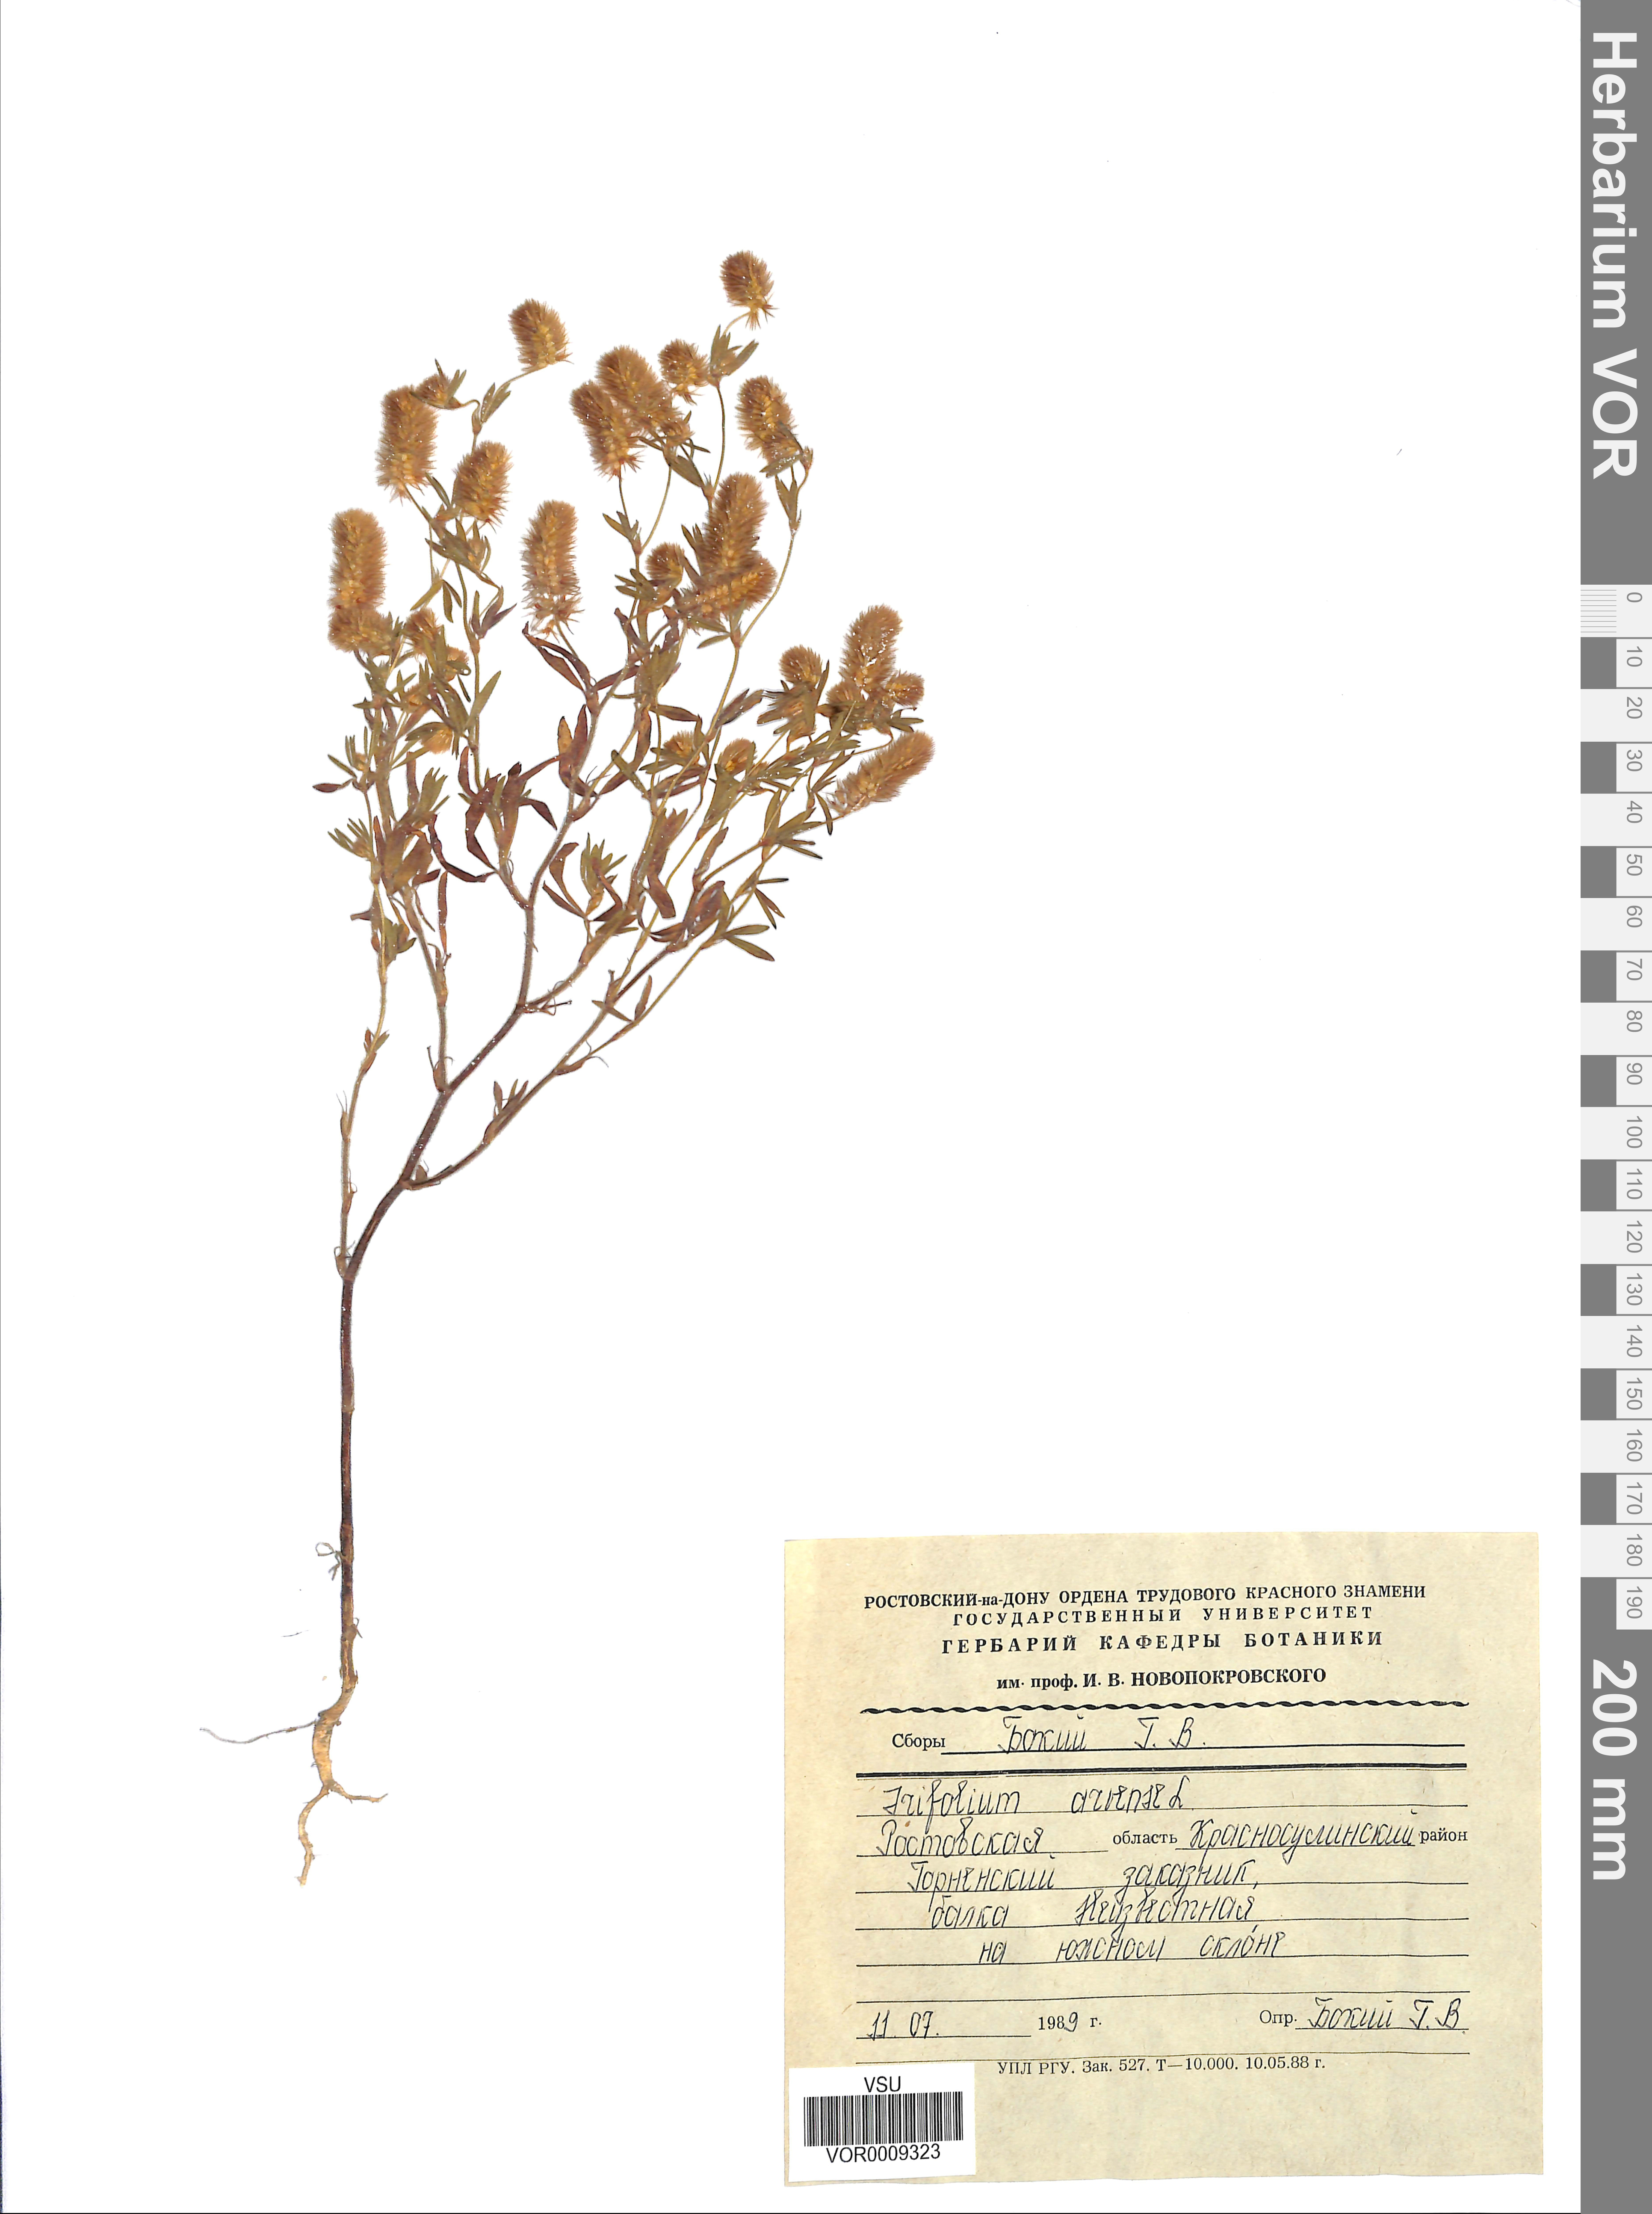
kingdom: Plantae
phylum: Tracheophyta
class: Magnoliopsida
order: Fabales
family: Fabaceae
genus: Trifolium
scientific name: Trifolium arvense
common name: Hare's-foot clover
